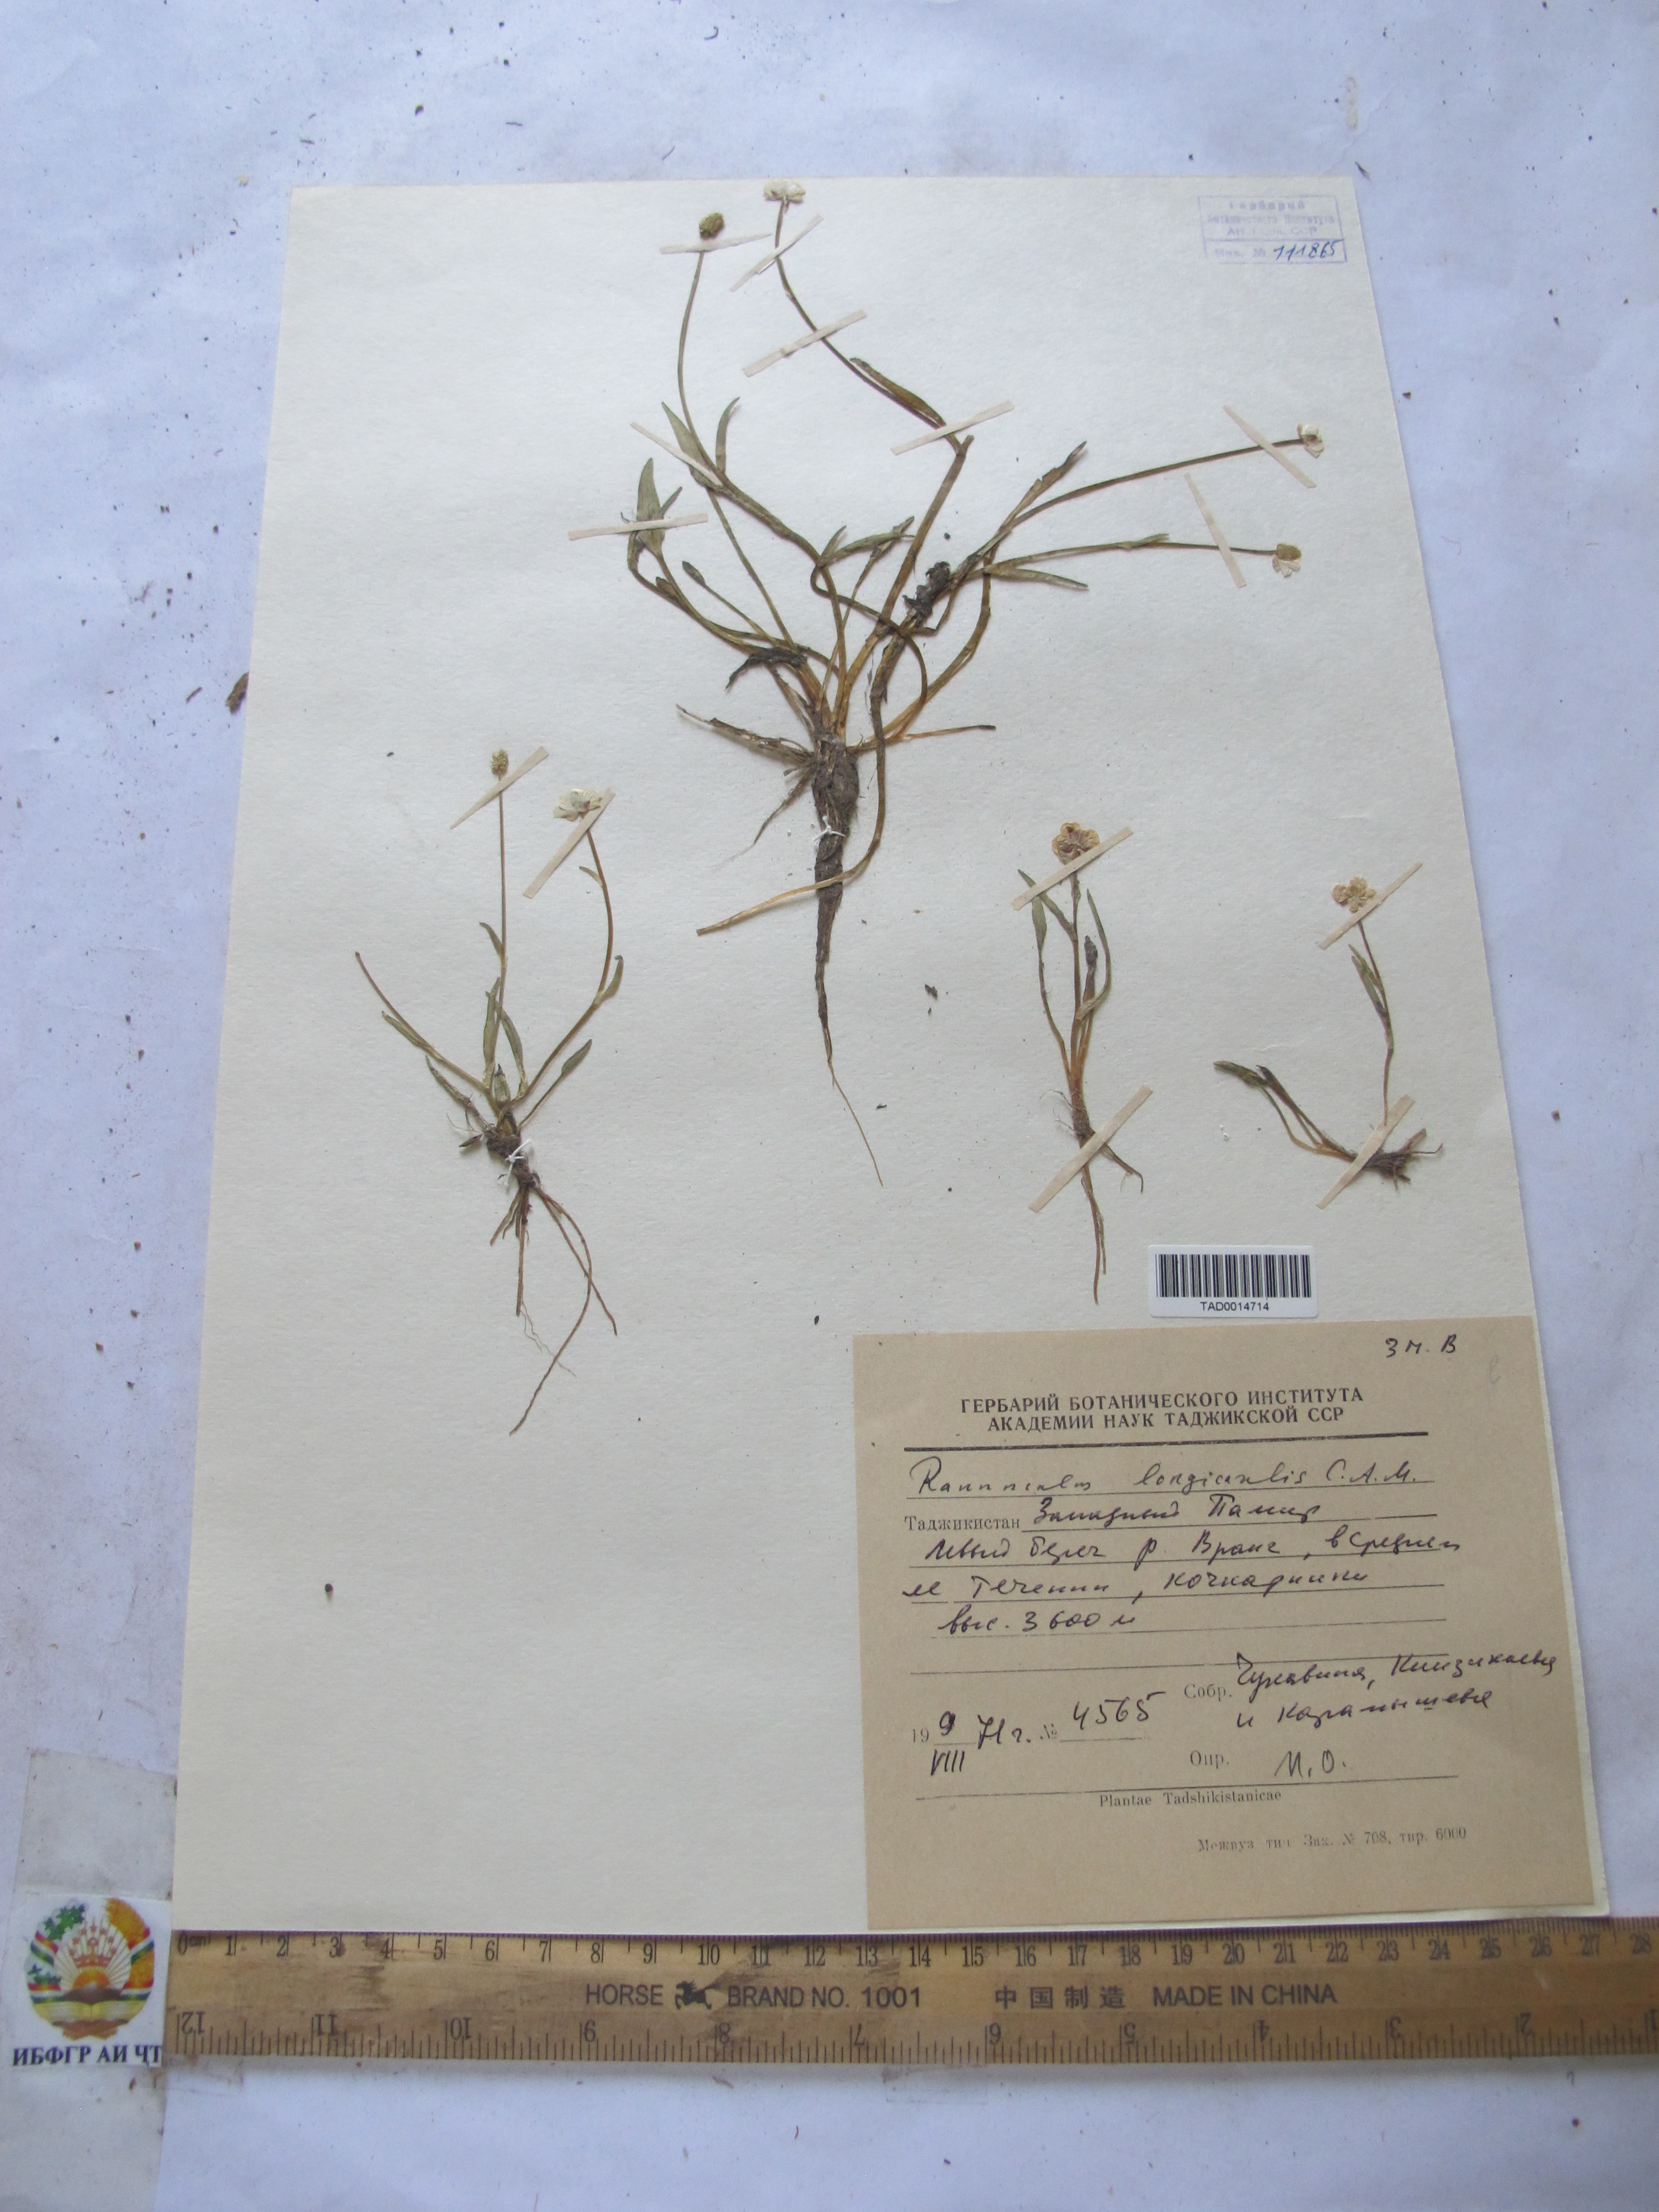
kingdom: Plantae
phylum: Tracheophyta
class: Magnoliopsida
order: Ranunculales
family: Ranunculaceae
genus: Ranunculus
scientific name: Ranunculus longicaulis
